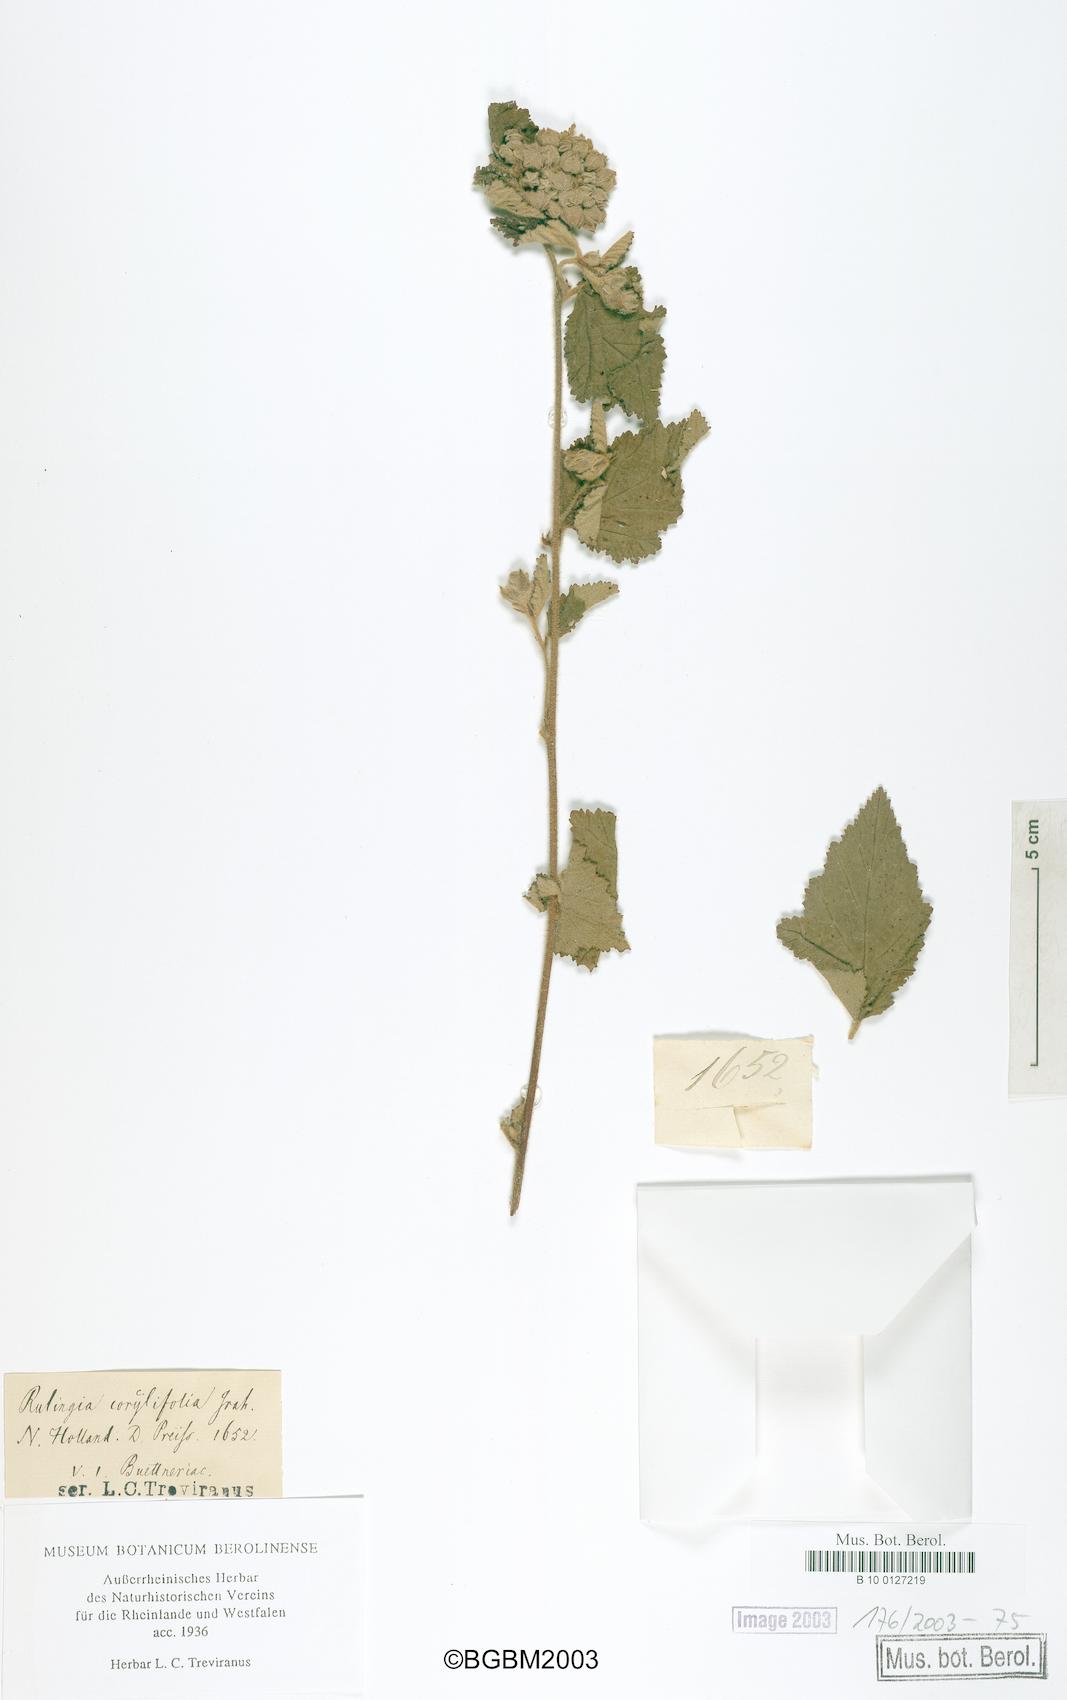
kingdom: Plantae
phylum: Tracheophyta
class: Magnoliopsida
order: Malvales
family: Malvaceae
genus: Commersonia
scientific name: Commersonia corylifolia
